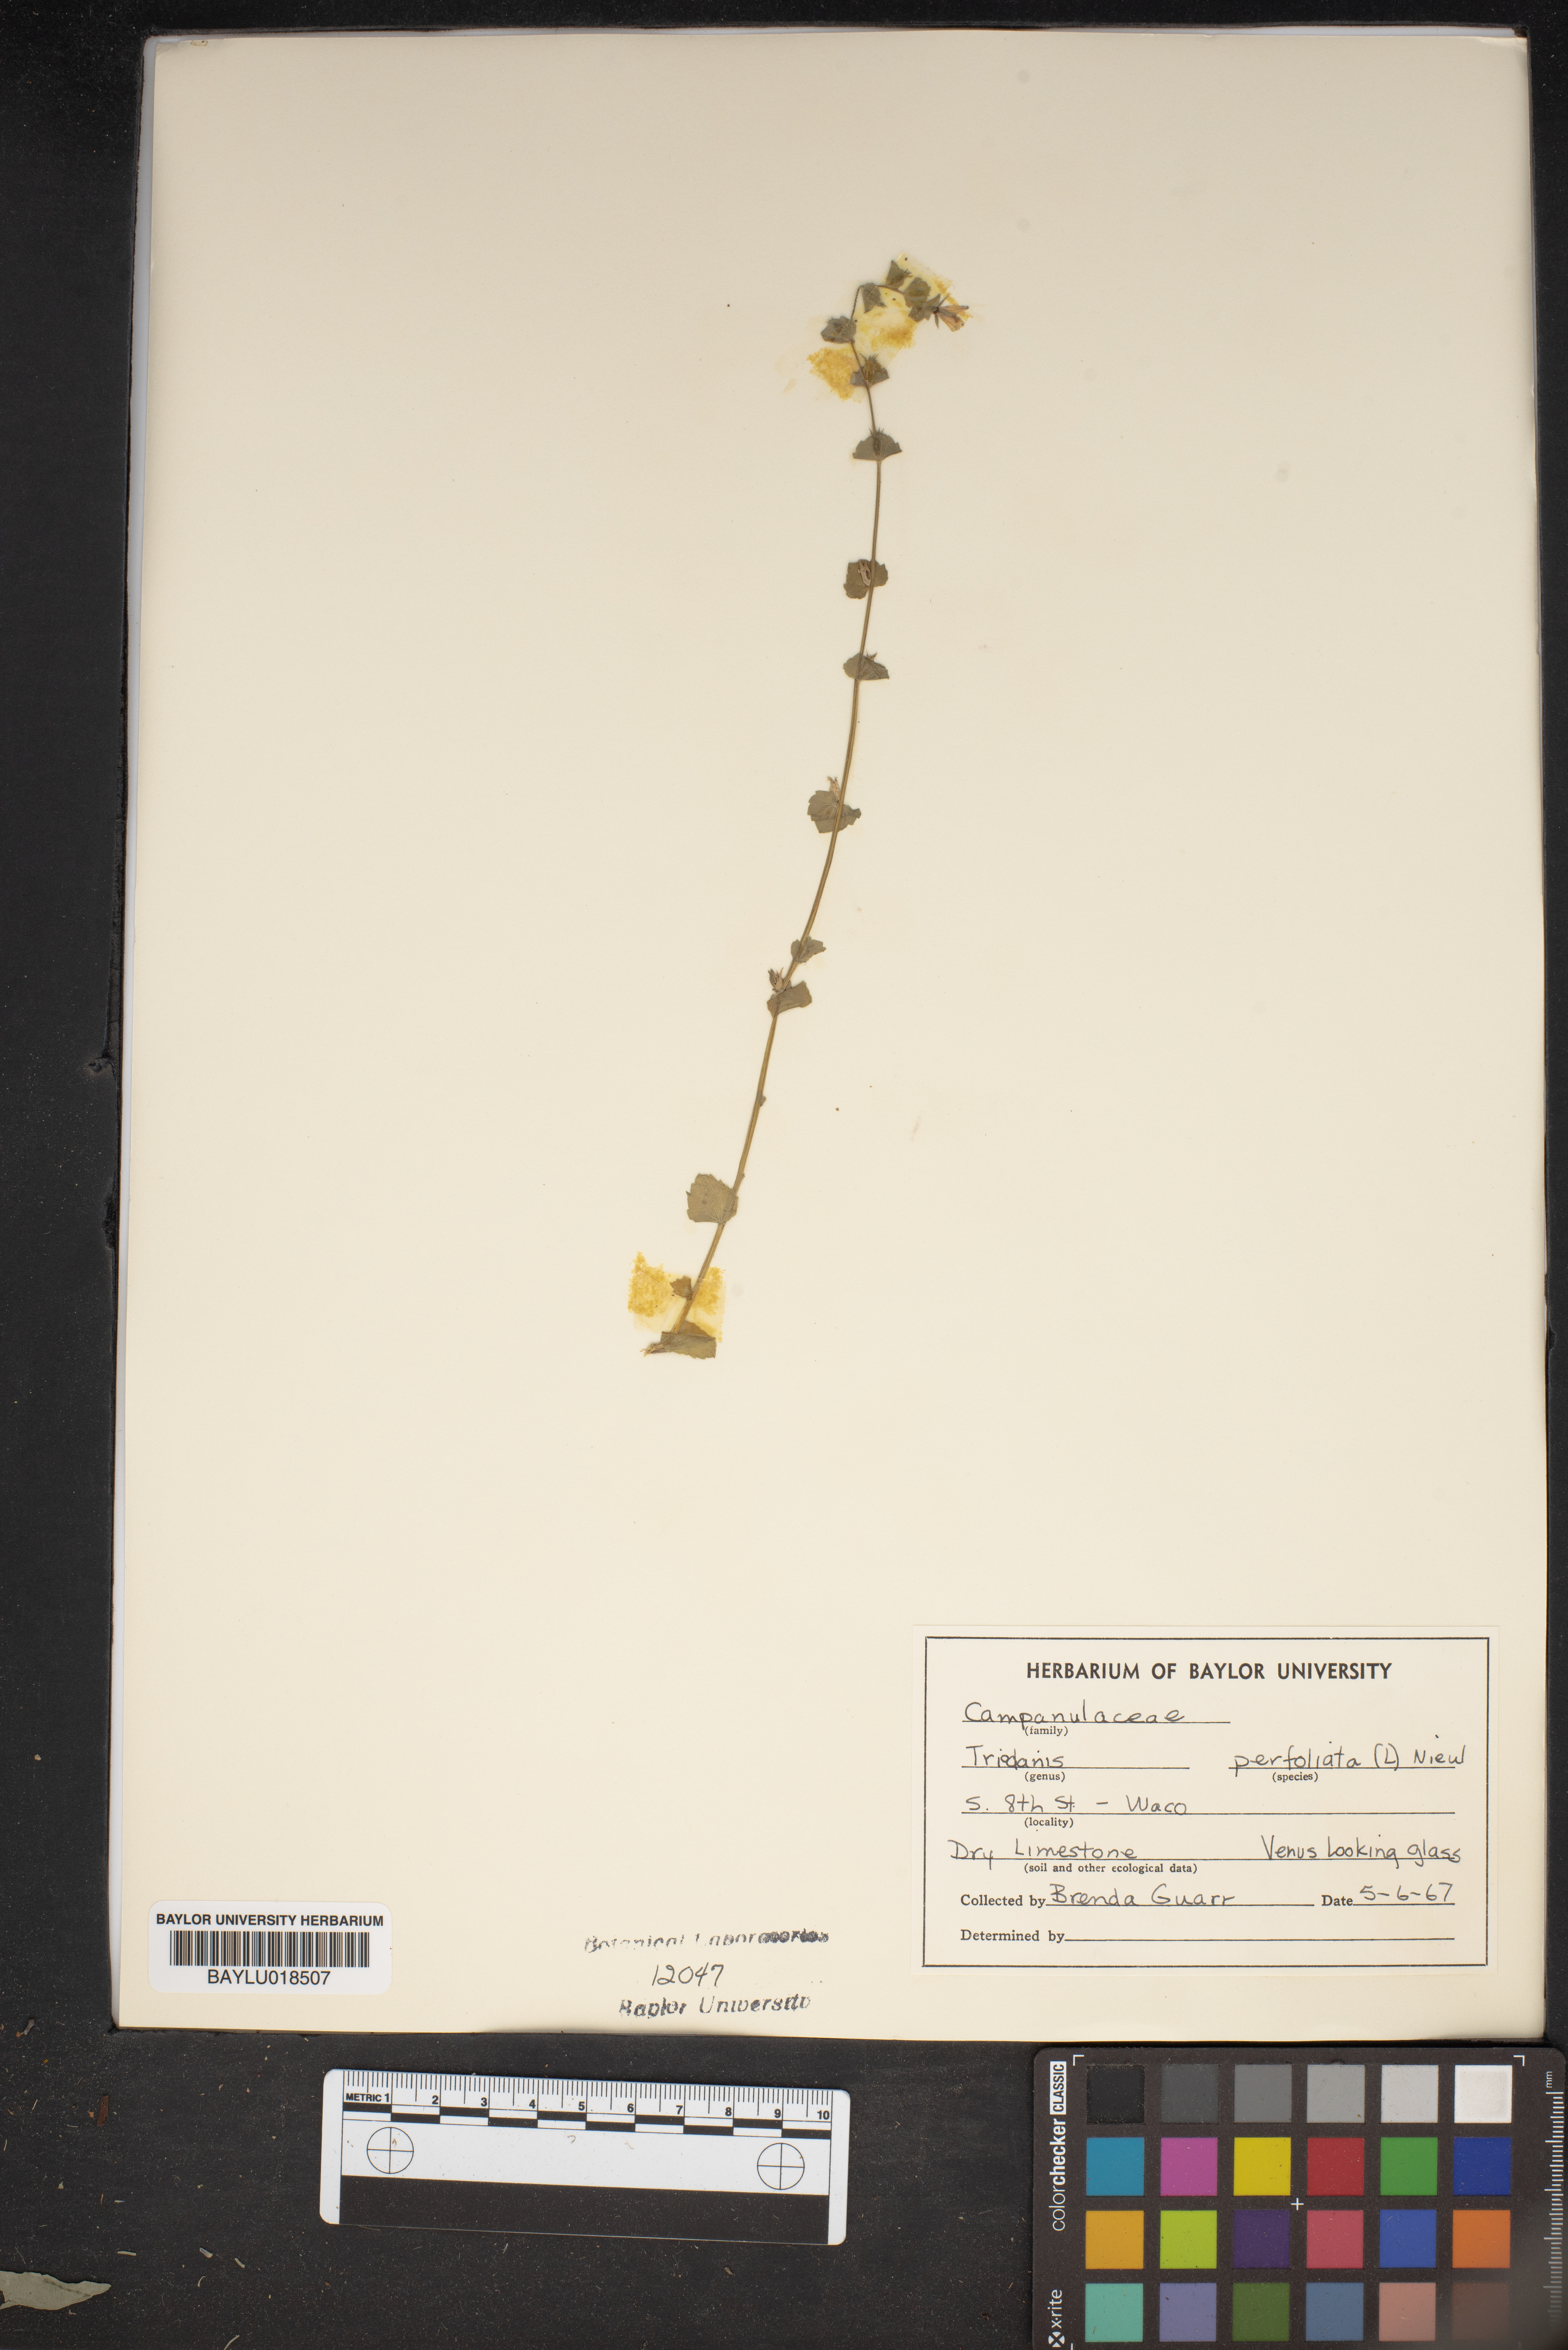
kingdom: Plantae
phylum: Tracheophyta
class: Magnoliopsida
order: Asterales
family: Campanulaceae
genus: Triodanis
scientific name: Triodanis perfoliata
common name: Clasping venus' looking-glass
